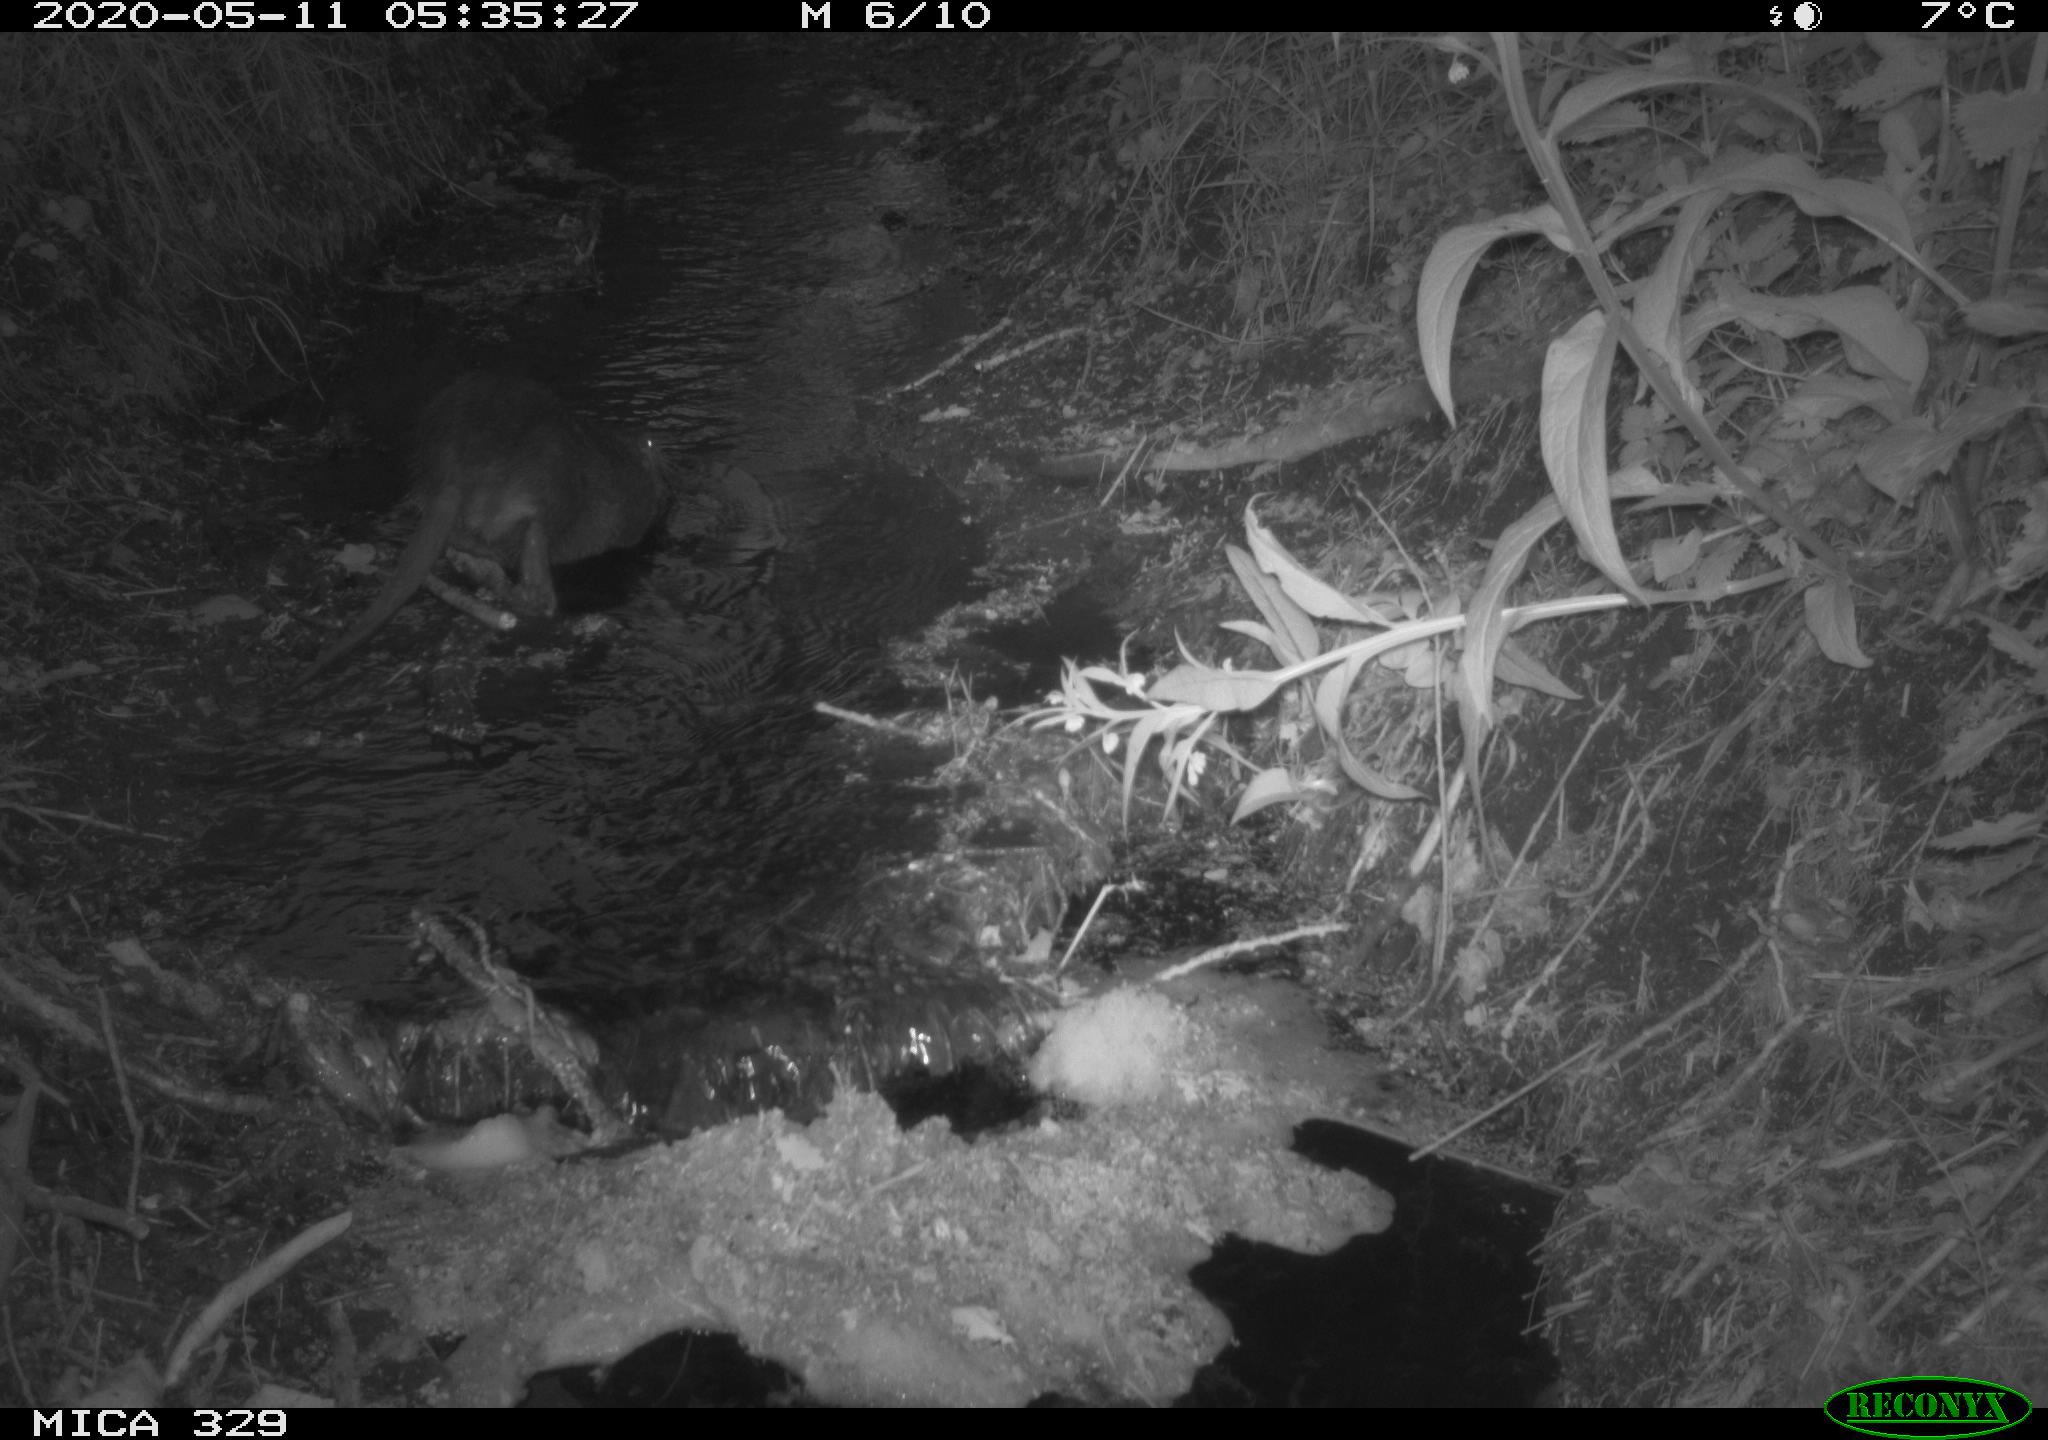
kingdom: Animalia
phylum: Chordata
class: Mammalia
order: Rodentia
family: Myocastoridae
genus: Myocastor
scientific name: Myocastor coypus
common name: Coypu
